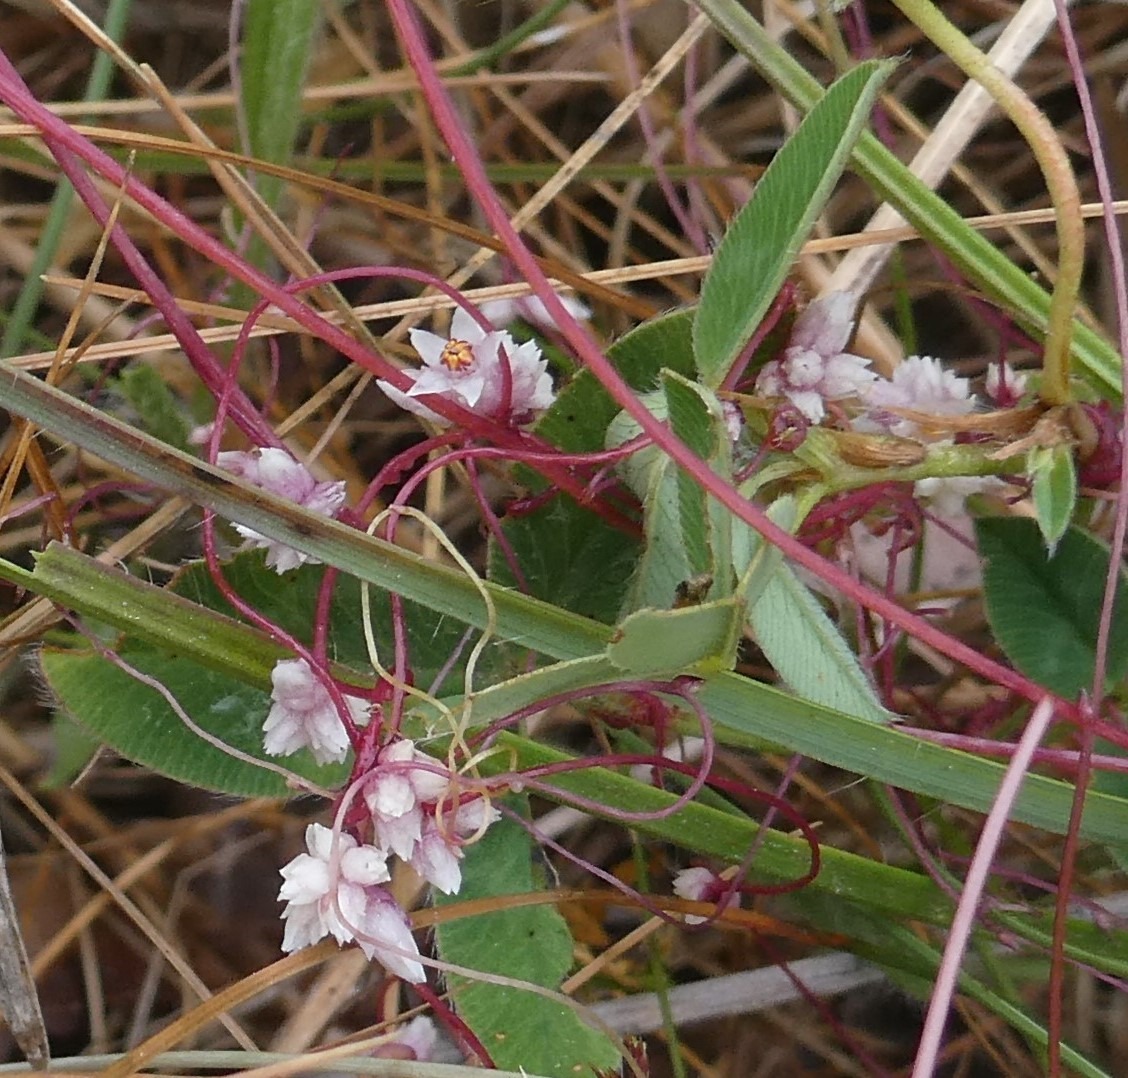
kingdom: Plantae
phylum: Tracheophyta
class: Magnoliopsida
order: Solanales
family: Convolvulaceae
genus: Cuscuta
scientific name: Cuscuta epithymum
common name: Lyng-silke
